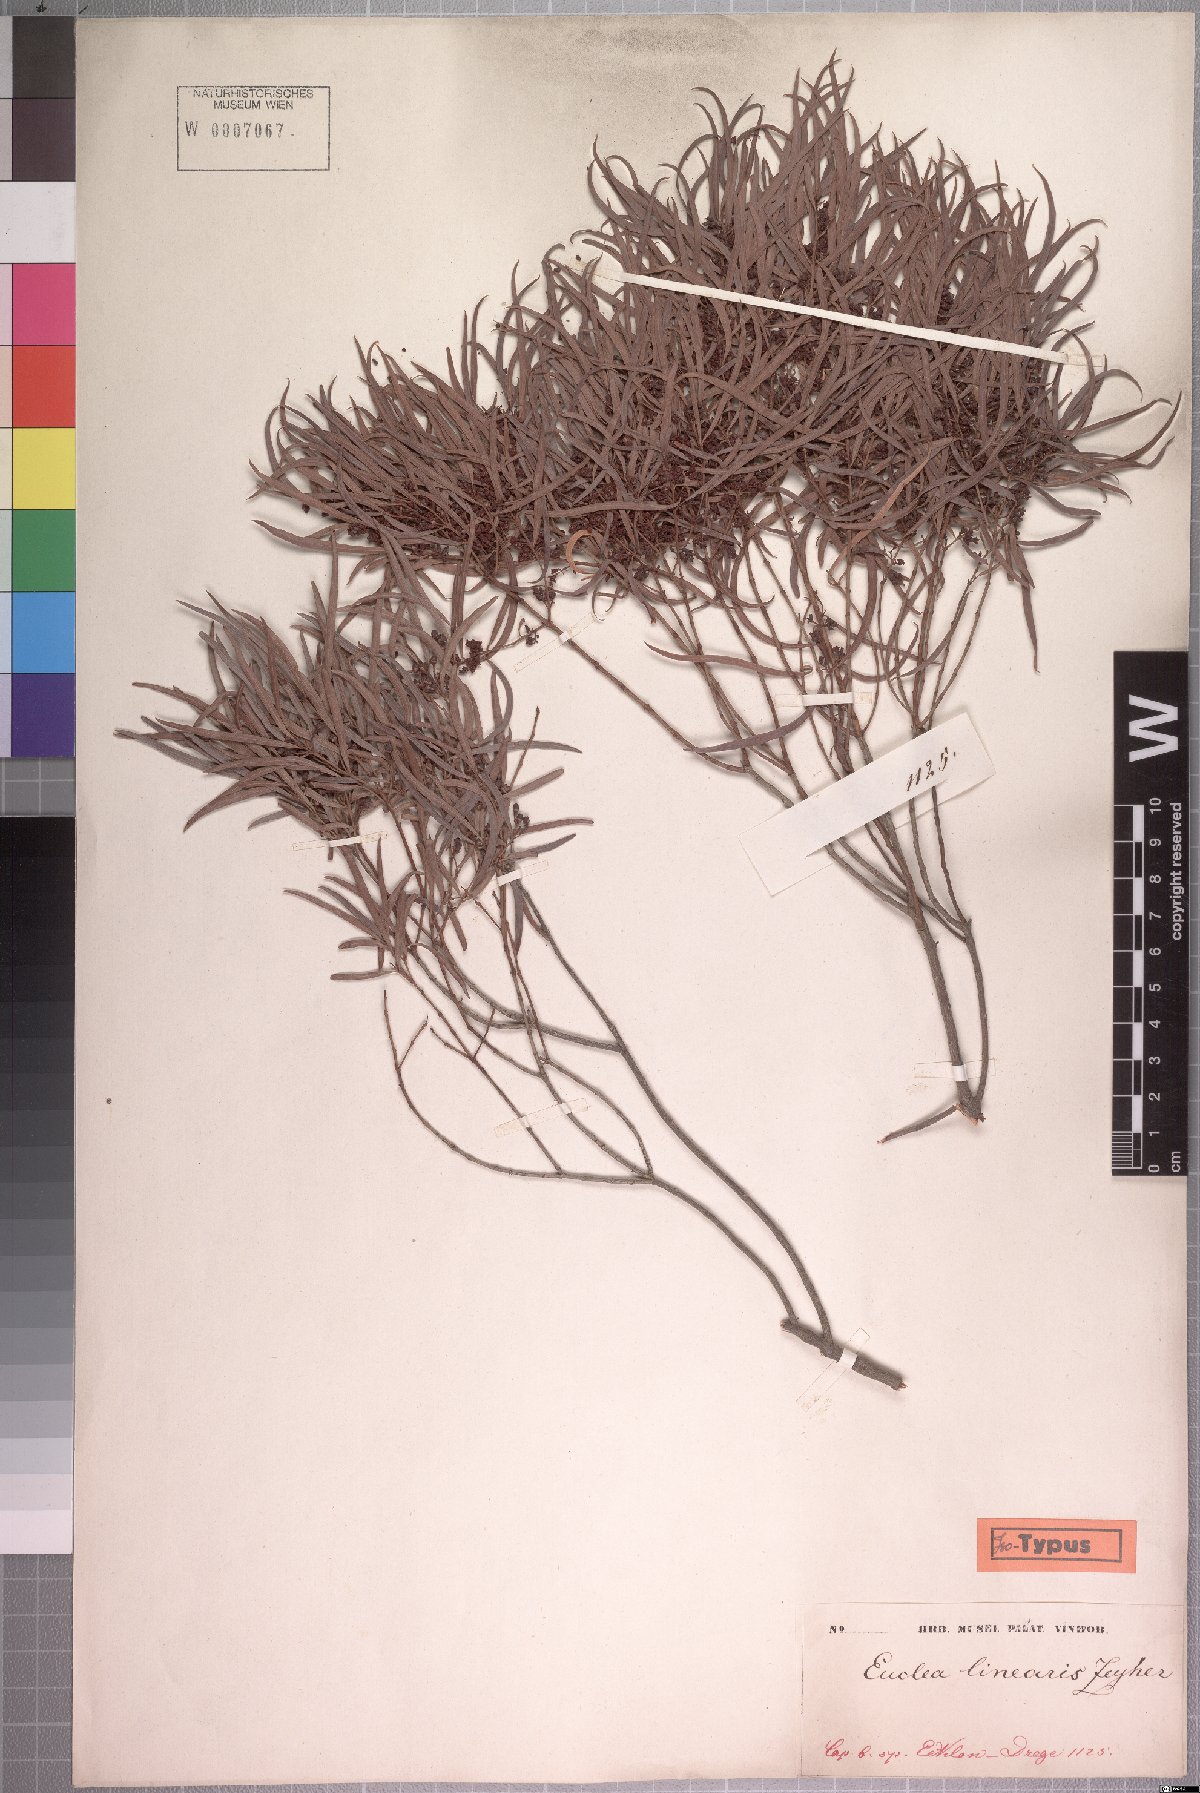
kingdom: Plantae
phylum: Tracheophyta
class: Magnoliopsida
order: Ericales
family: Ebenaceae
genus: Euclea
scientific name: Euclea crispa
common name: Blue guarri
